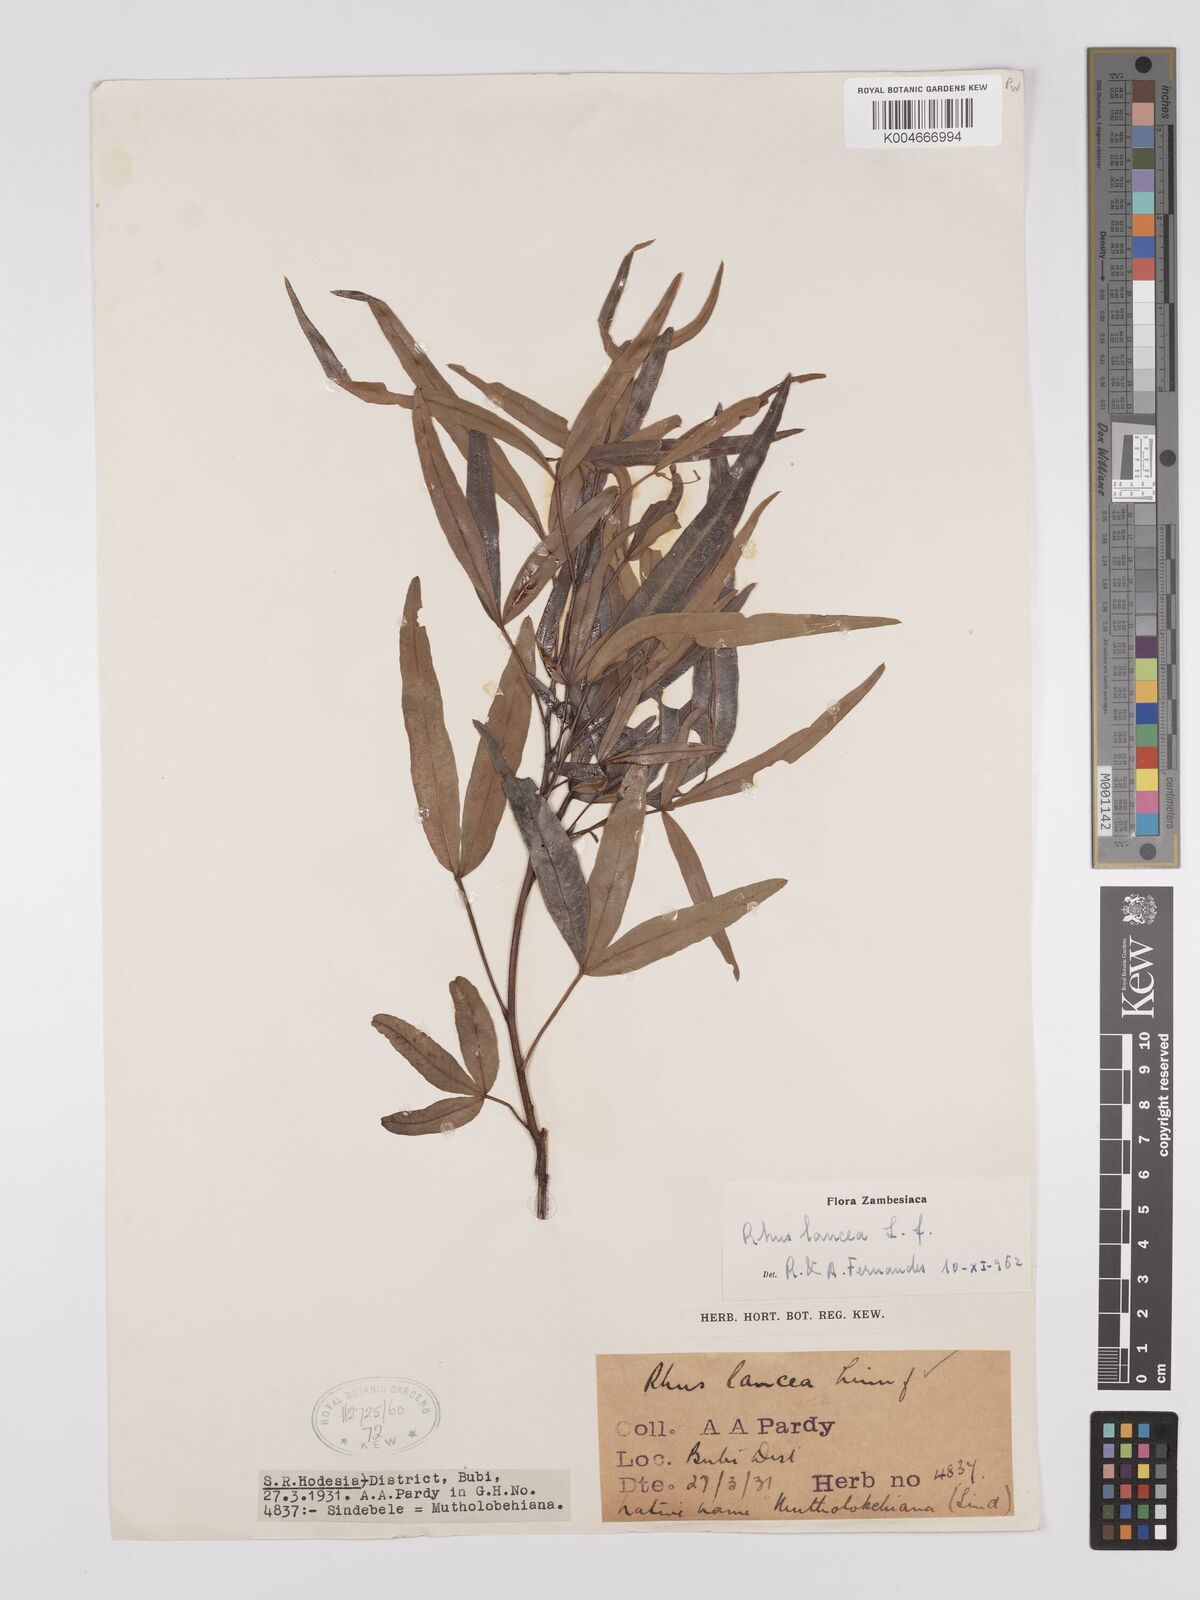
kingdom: Plantae
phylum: Tracheophyta
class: Magnoliopsida
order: Sapindales
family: Anacardiaceae
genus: Searsia
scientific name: Searsia lancea
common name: Cashew
